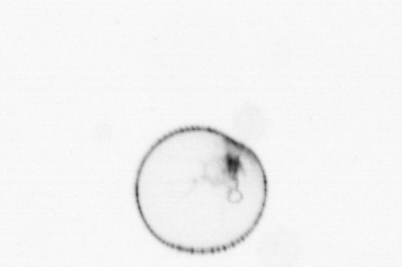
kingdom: Chromista
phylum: Myzozoa
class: Dinophyceae
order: Noctilucales
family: Noctilucaceae
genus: Noctiluca
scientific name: Noctiluca scintillans
